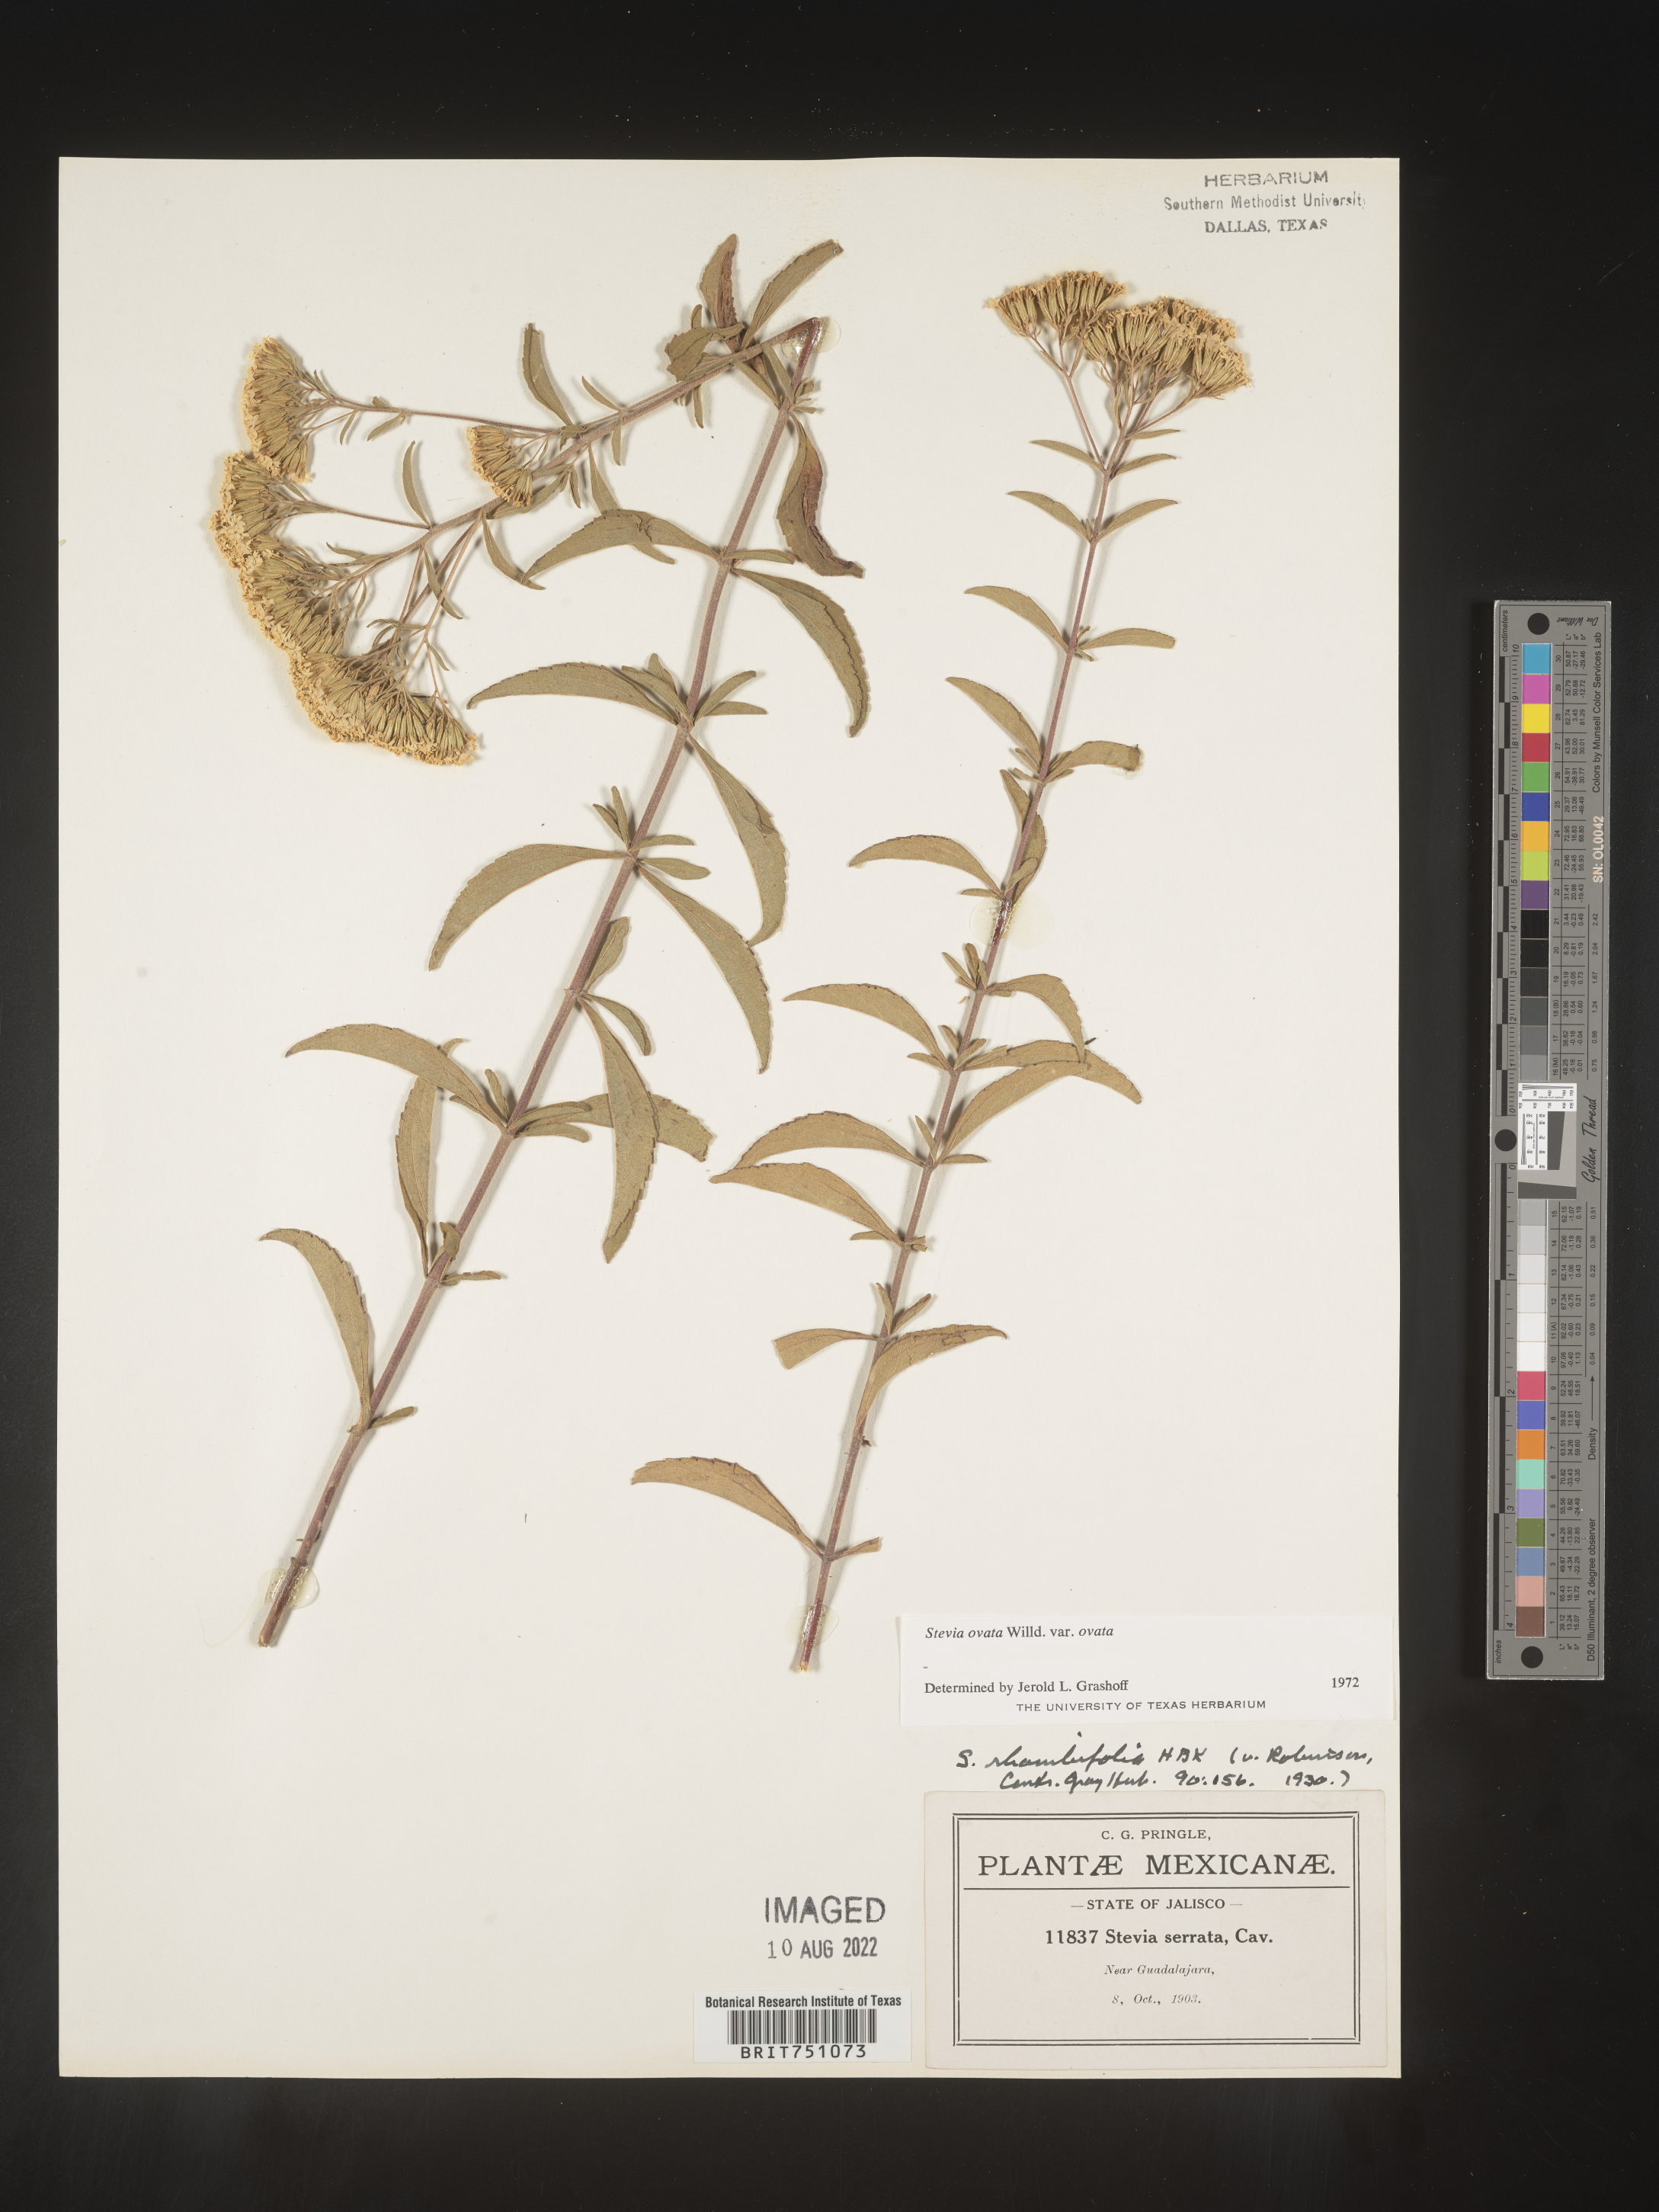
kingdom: Plantae
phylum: Tracheophyta
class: Magnoliopsida
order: Asterales
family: Asteraceae
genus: Stevia
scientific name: Stevia ovata
